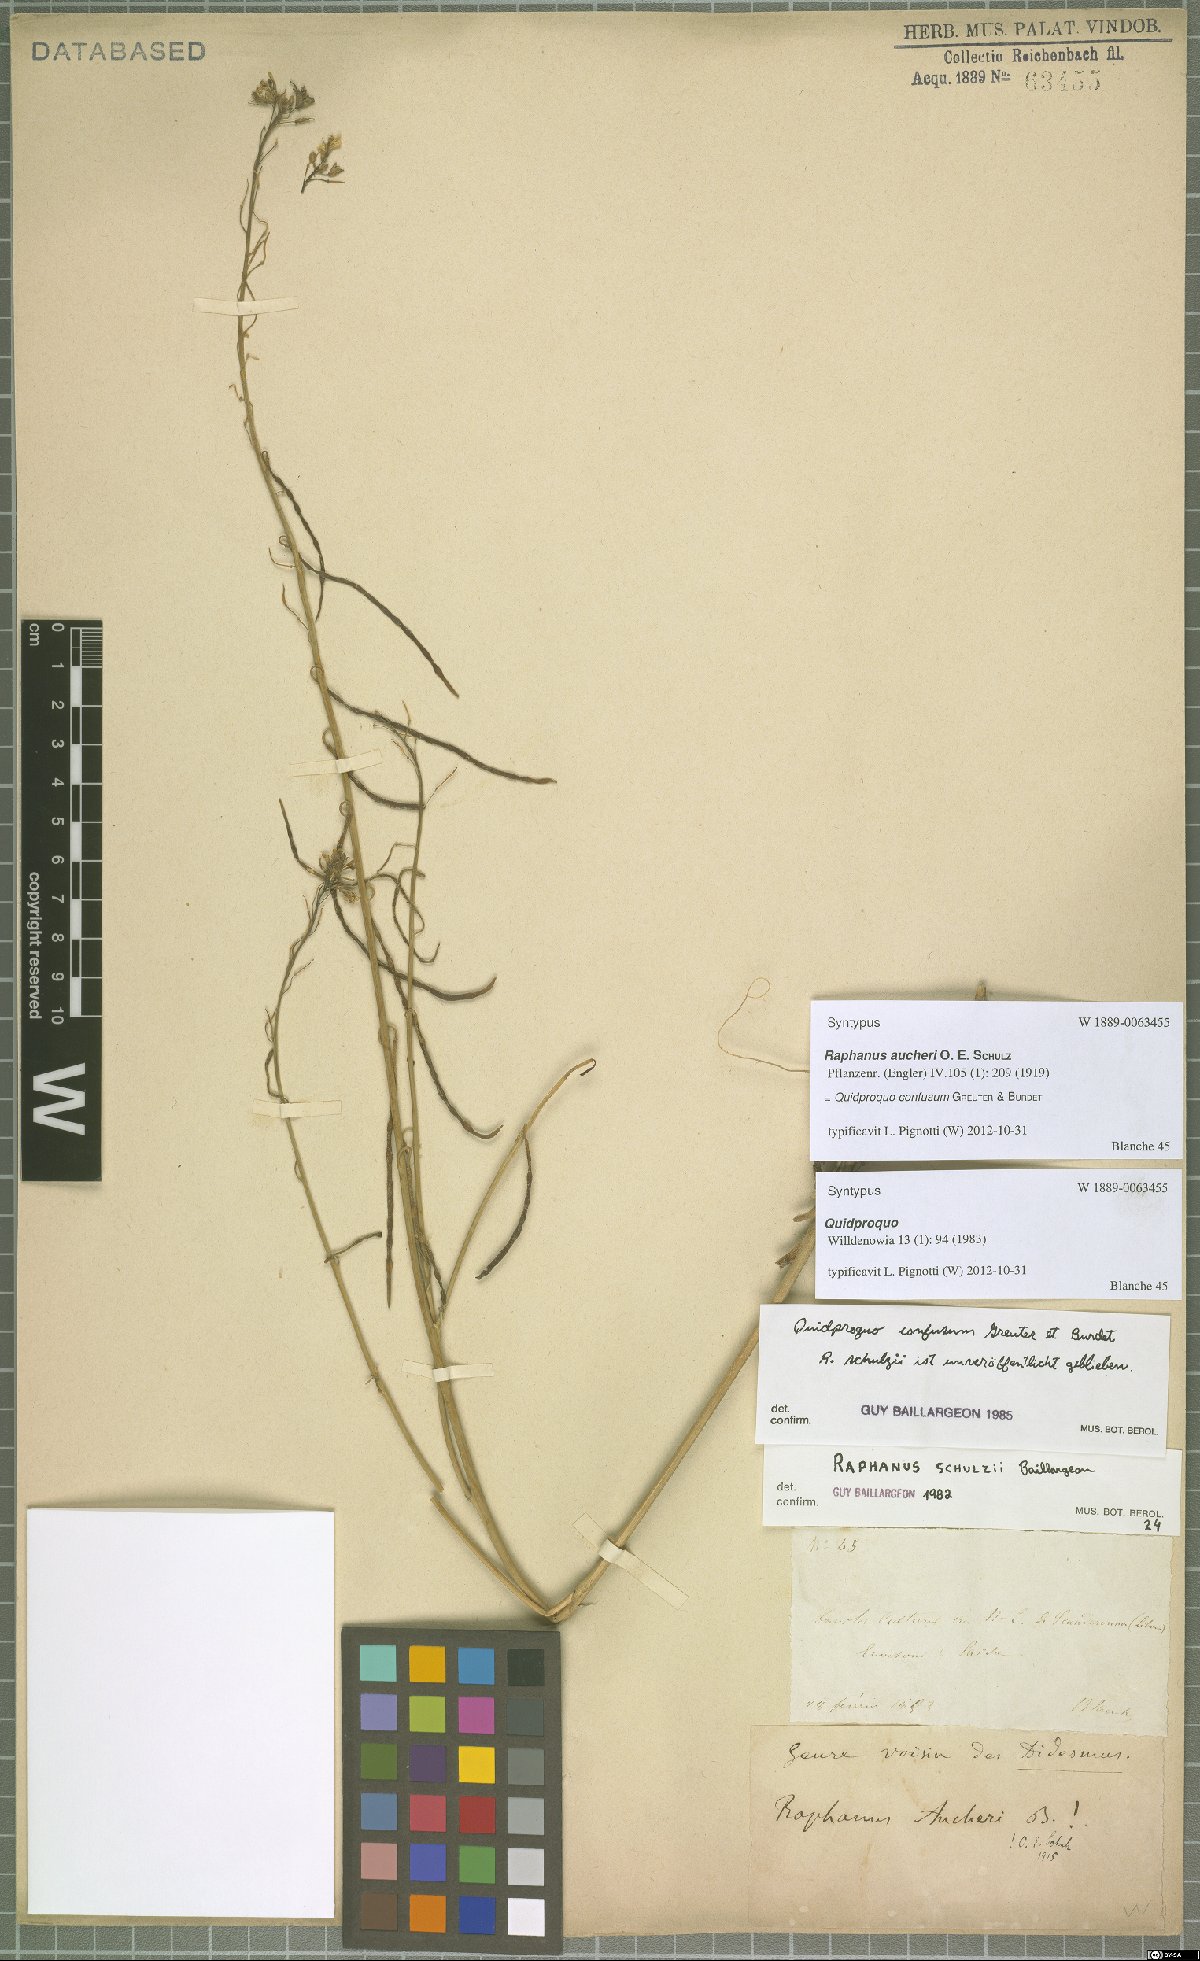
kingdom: Plantae
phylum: Tracheophyta
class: Magnoliopsida
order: Brassicales
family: Brassicaceae
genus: Raphanus
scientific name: Raphanus confusus
